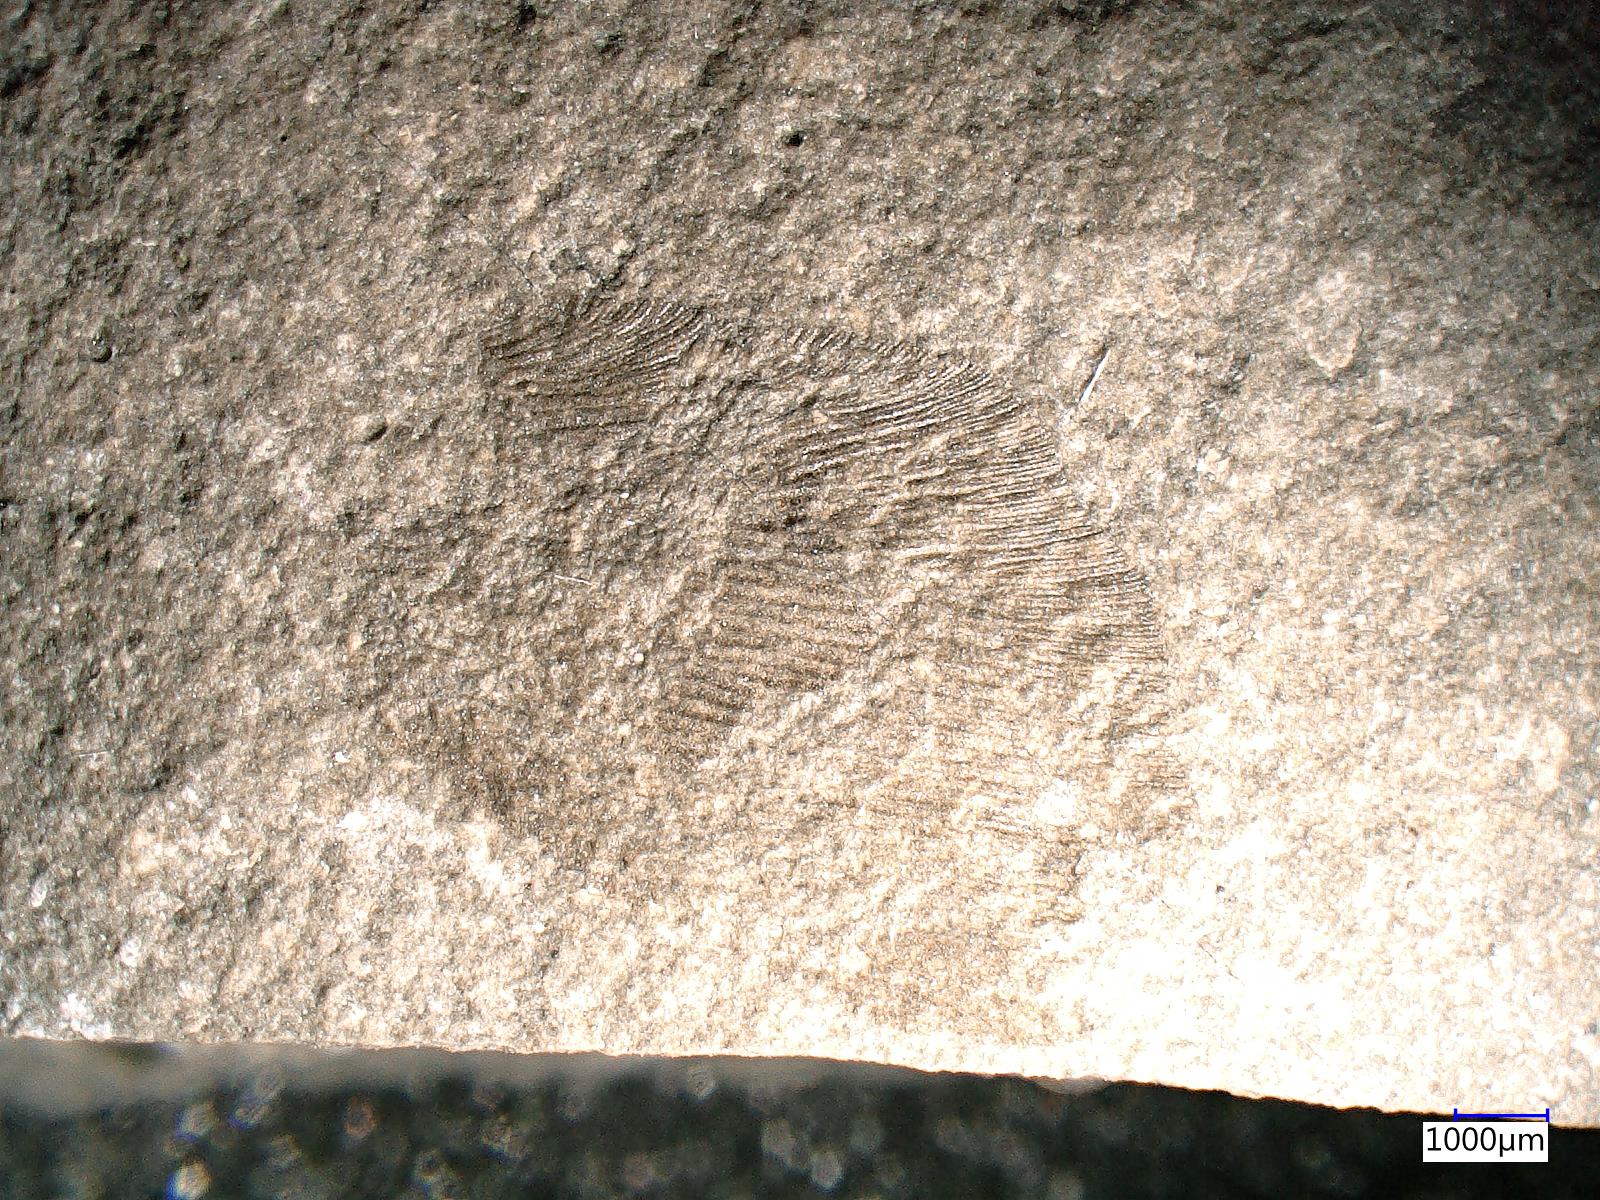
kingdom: Animalia
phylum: Arthropoda
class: Insecta
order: Neuroptera
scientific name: Neuroptera
